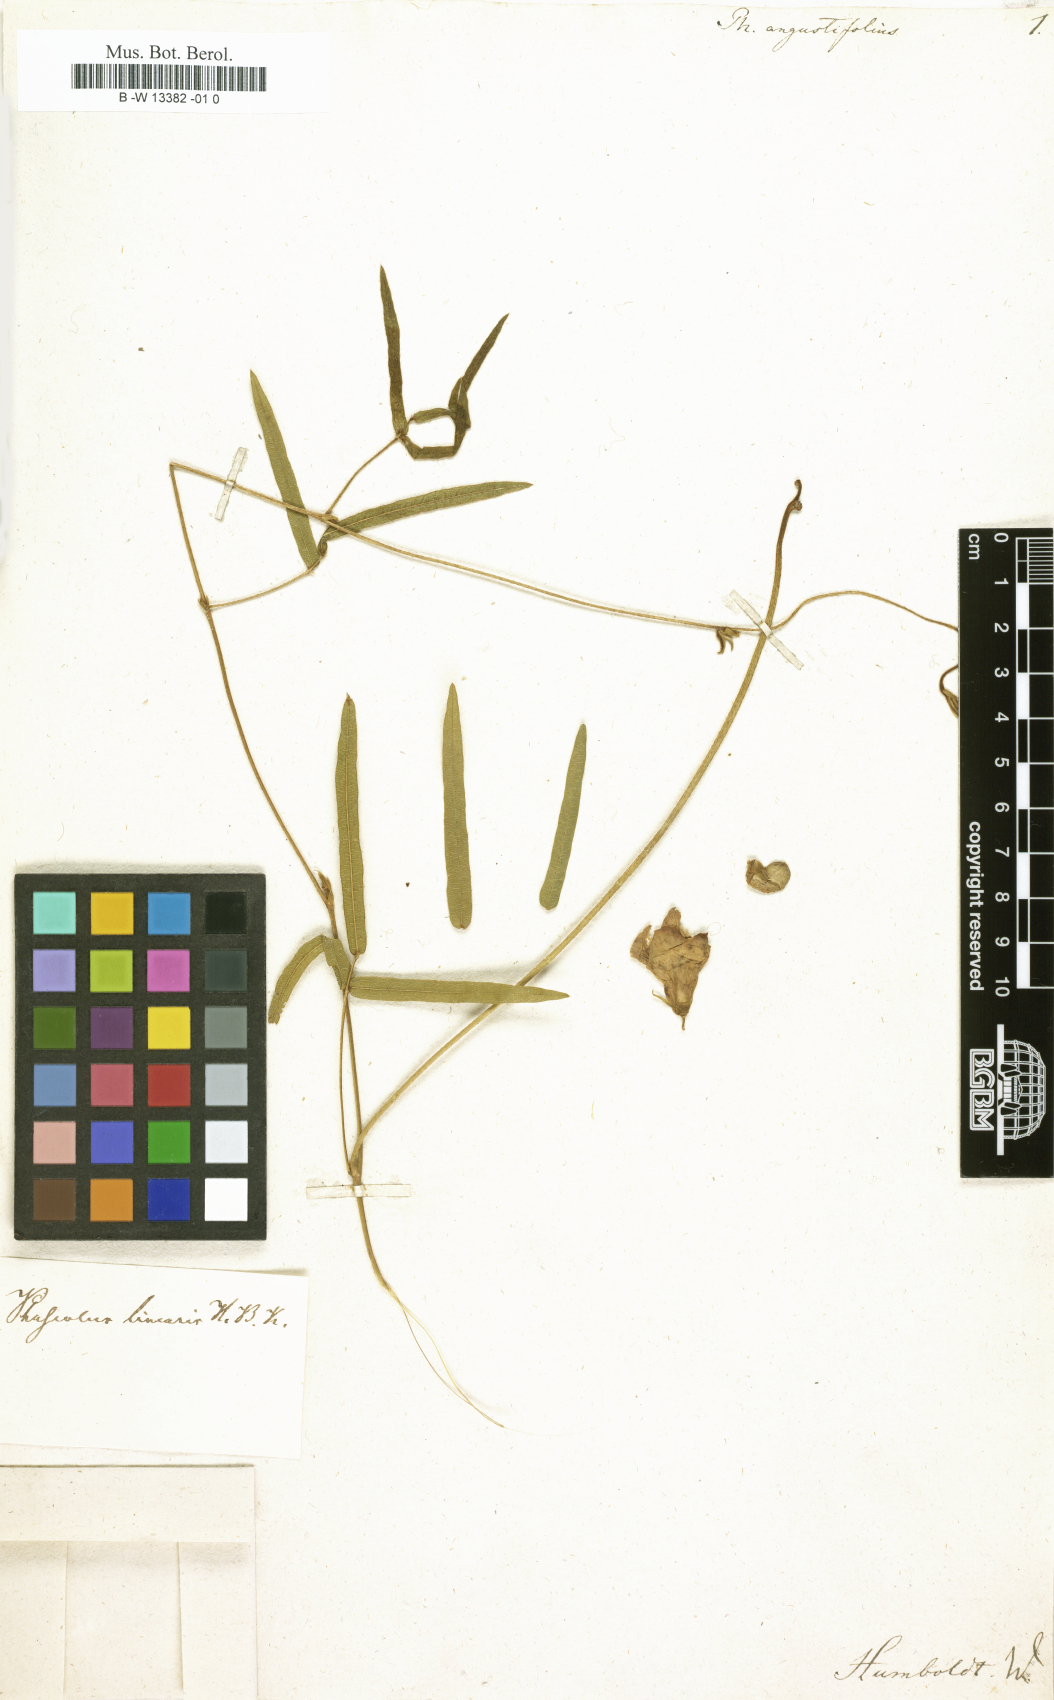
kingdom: Plantae
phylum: Tracheophyta
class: Magnoliopsida
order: Fabales
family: Fabaceae
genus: Vigna
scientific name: Vigna
